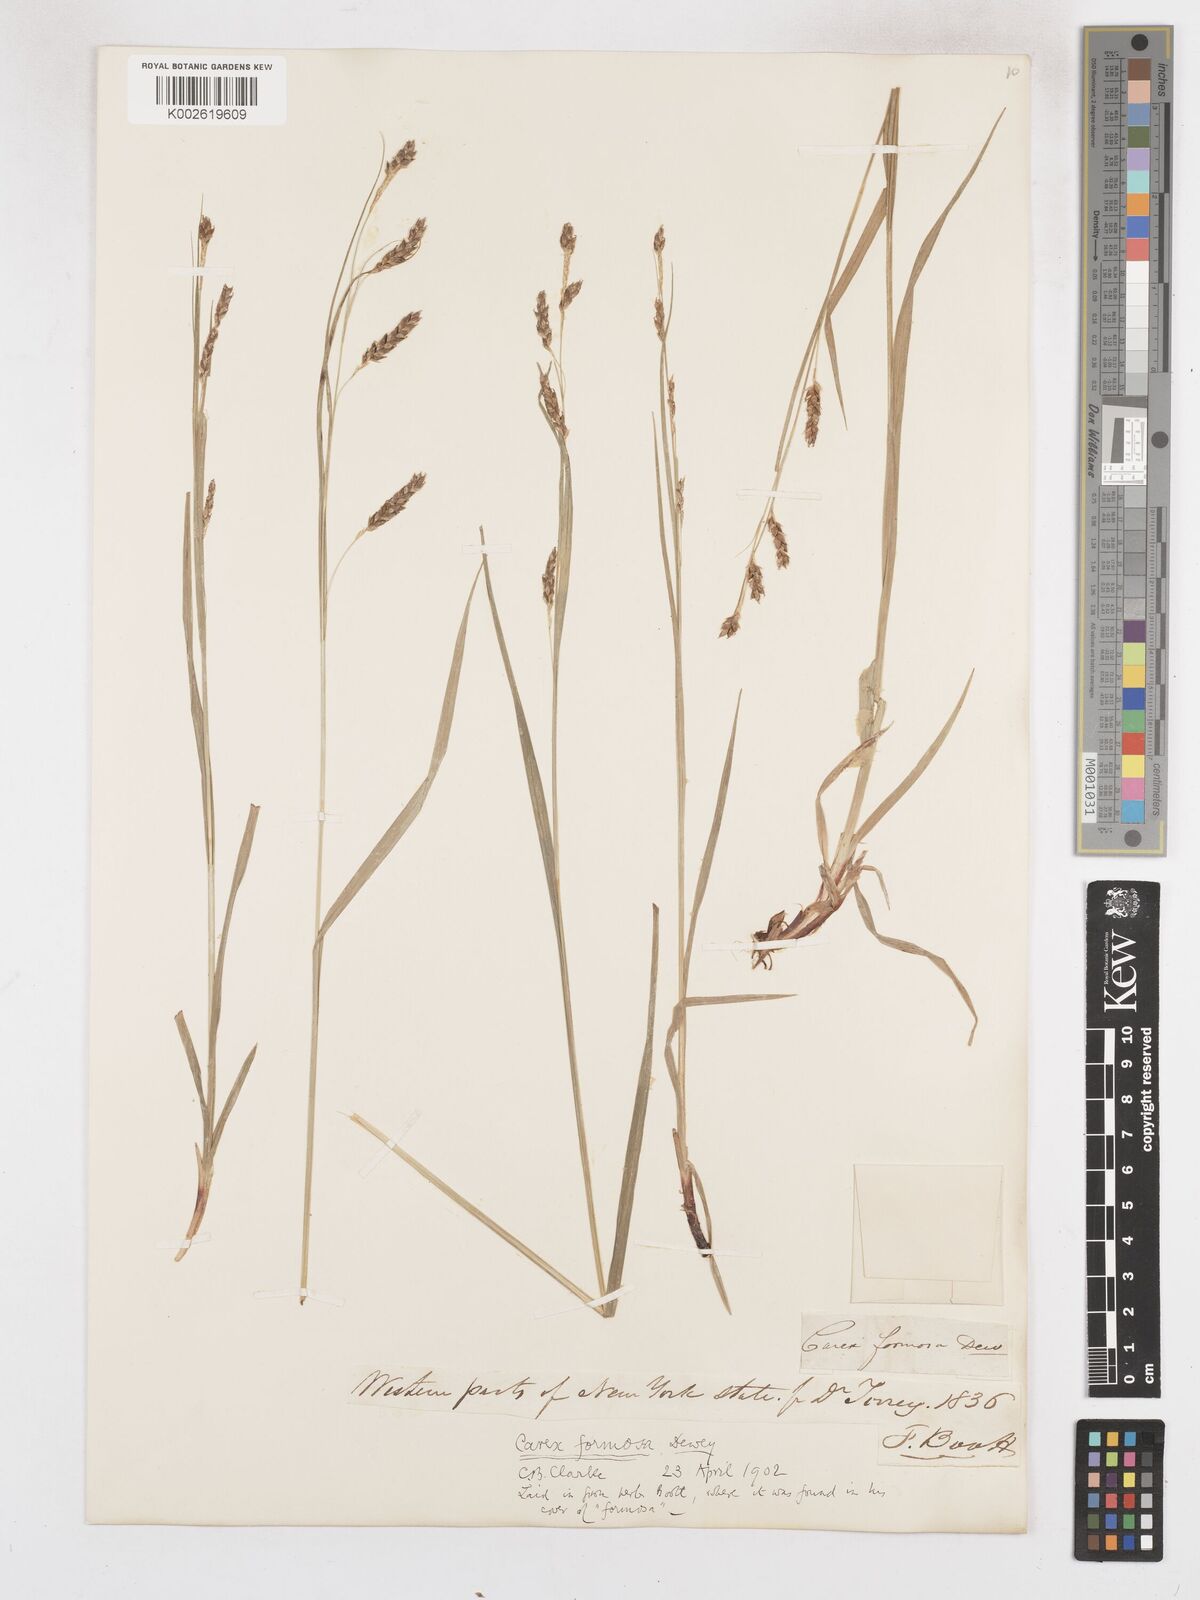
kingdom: Plantae
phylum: Tracheophyta
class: Liliopsida
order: Poales
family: Cyperaceae
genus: Carex
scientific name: Carex formosa
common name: Awnless graceful sedge
